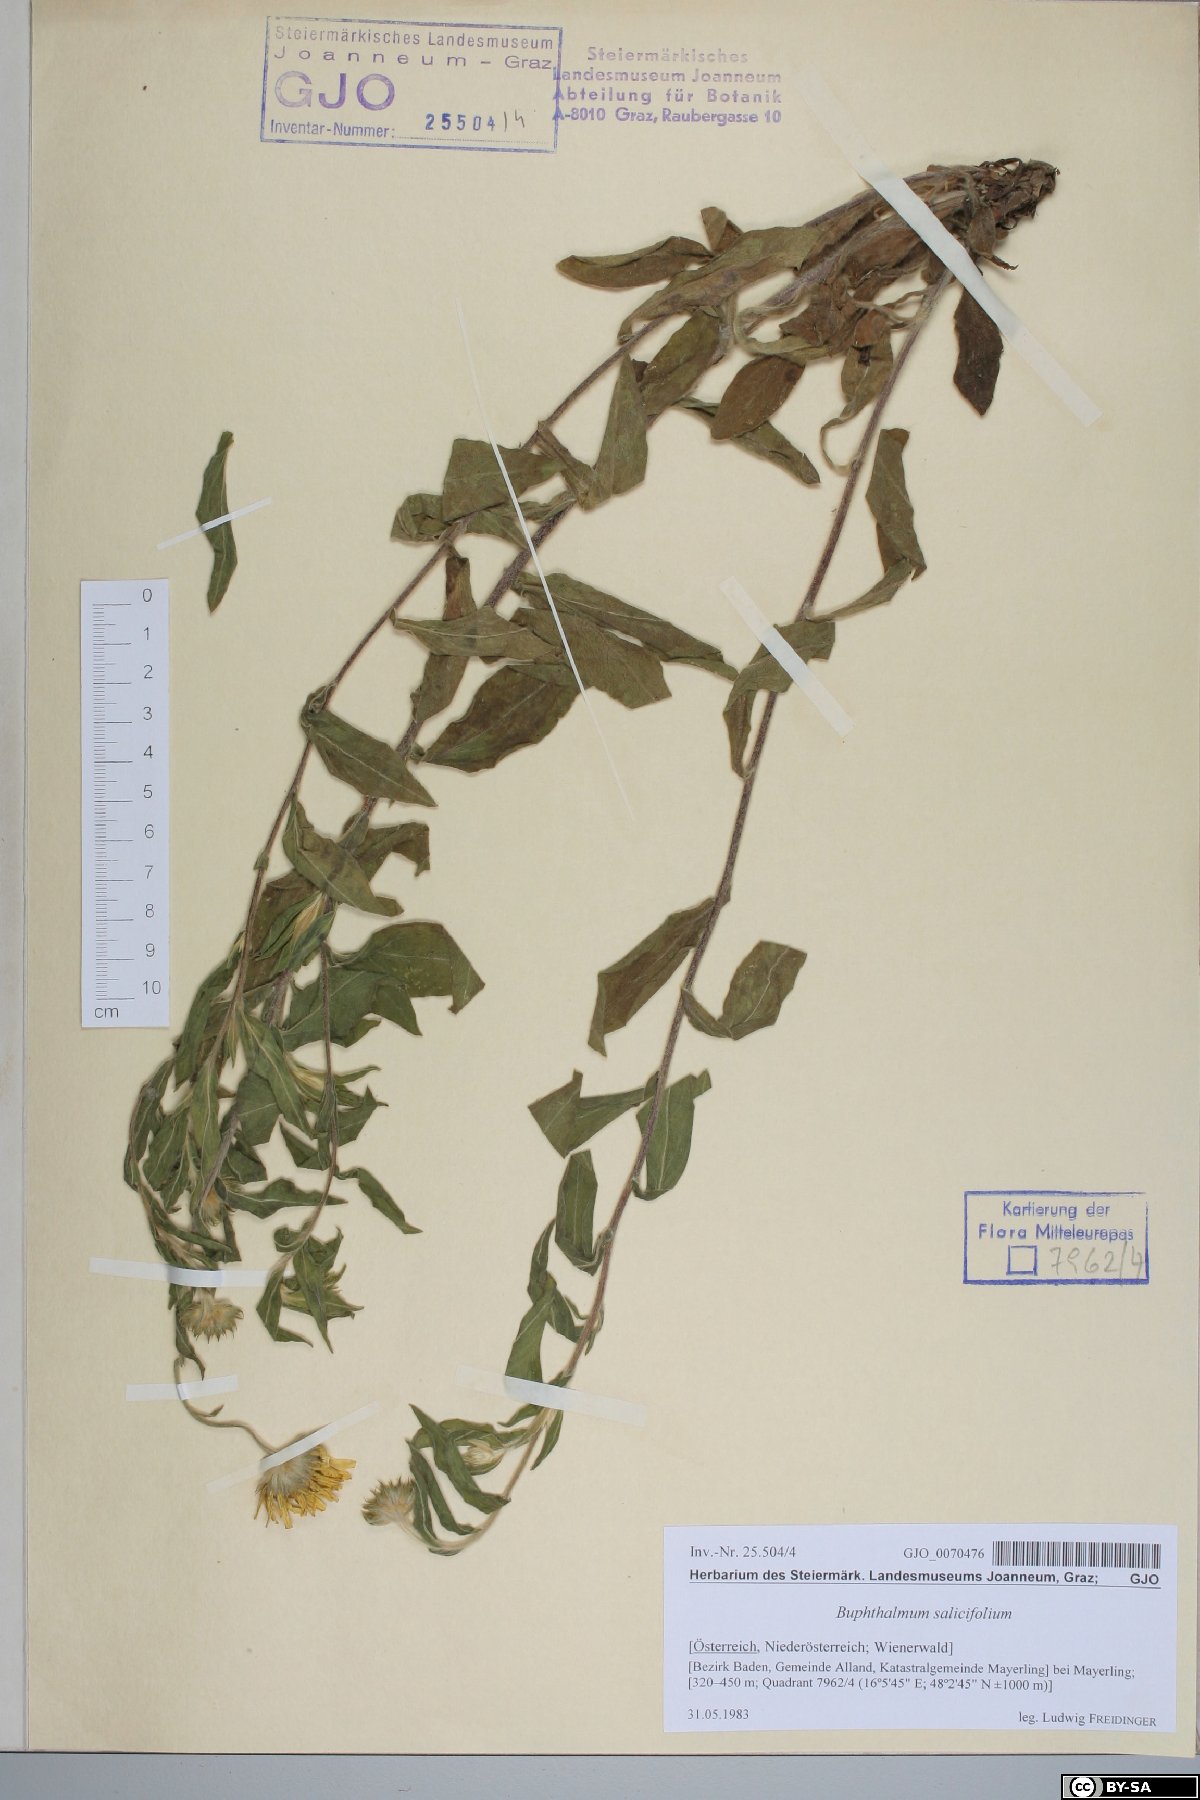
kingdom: Plantae
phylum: Tracheophyta
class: Magnoliopsida
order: Asterales
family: Asteraceae
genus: Buphthalmum
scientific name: Buphthalmum salicifolium
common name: Willow-leaved yellow-oxeye
